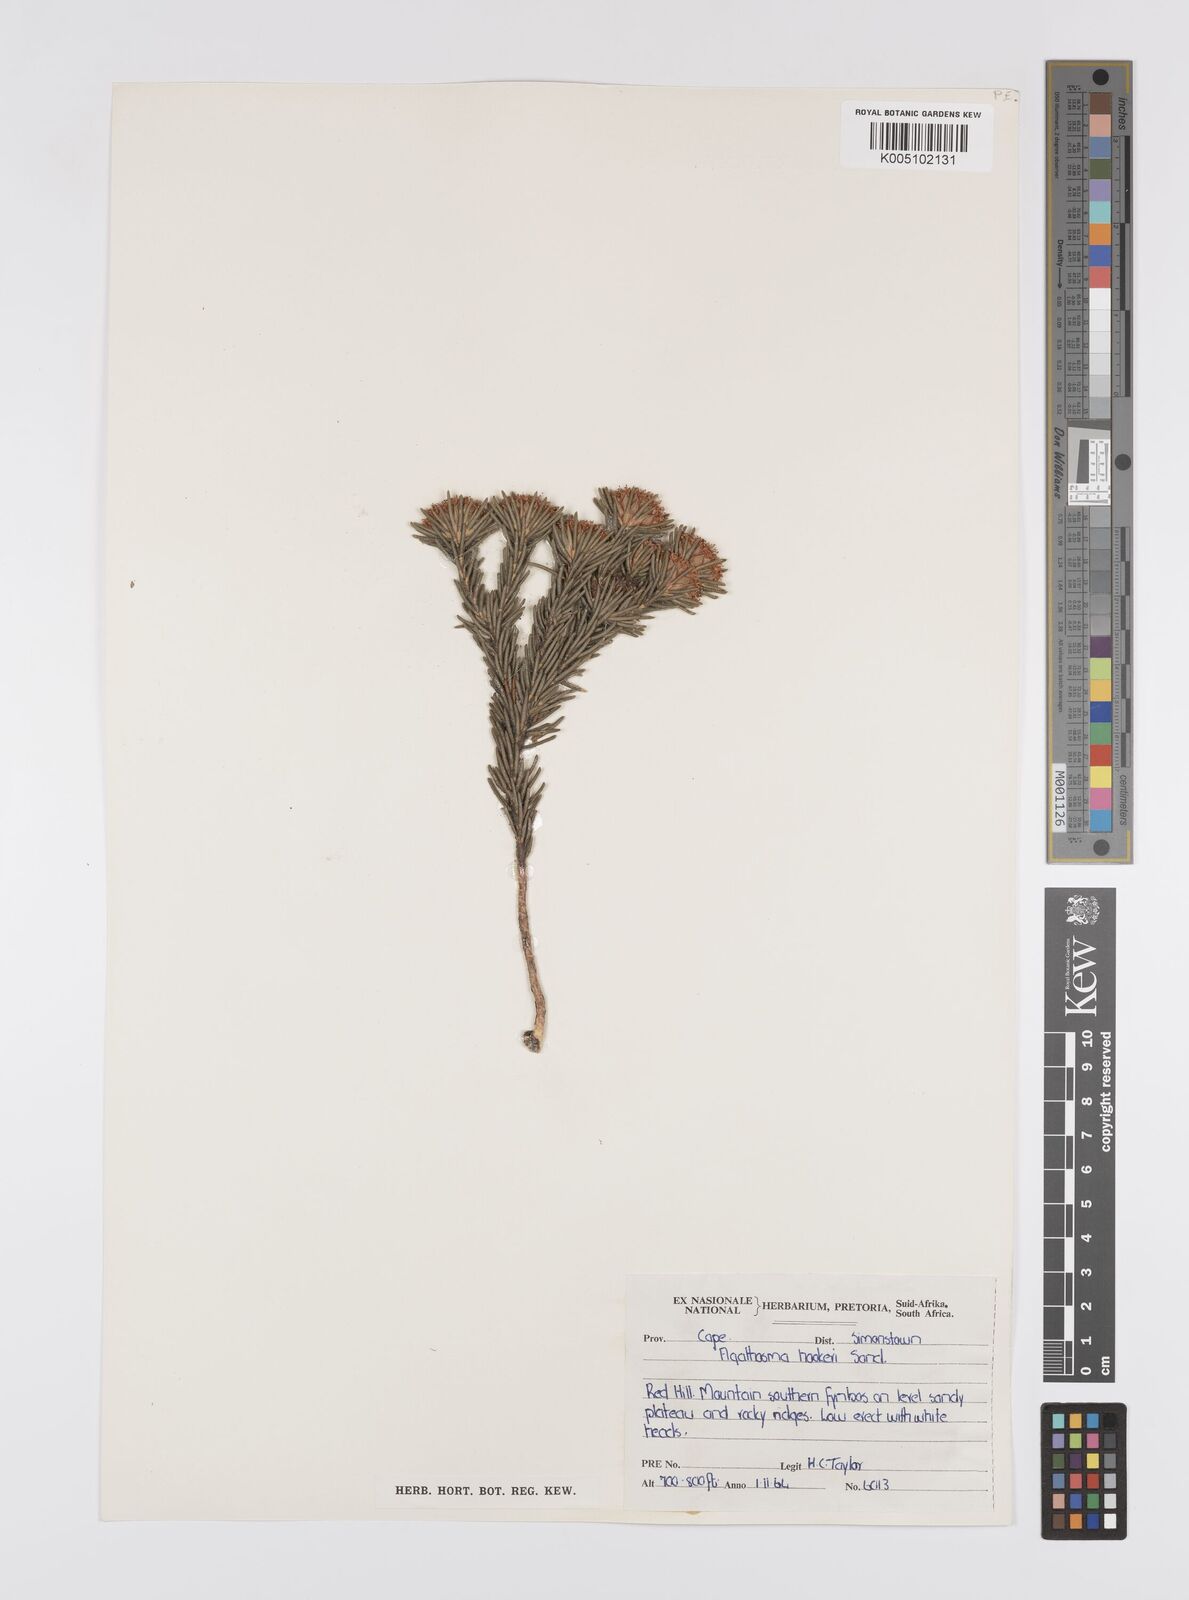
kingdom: Plantae
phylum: Tracheophyta
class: Magnoliopsida
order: Sapindales
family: Rutaceae
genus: Agathosma
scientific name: Agathosma hookeri
